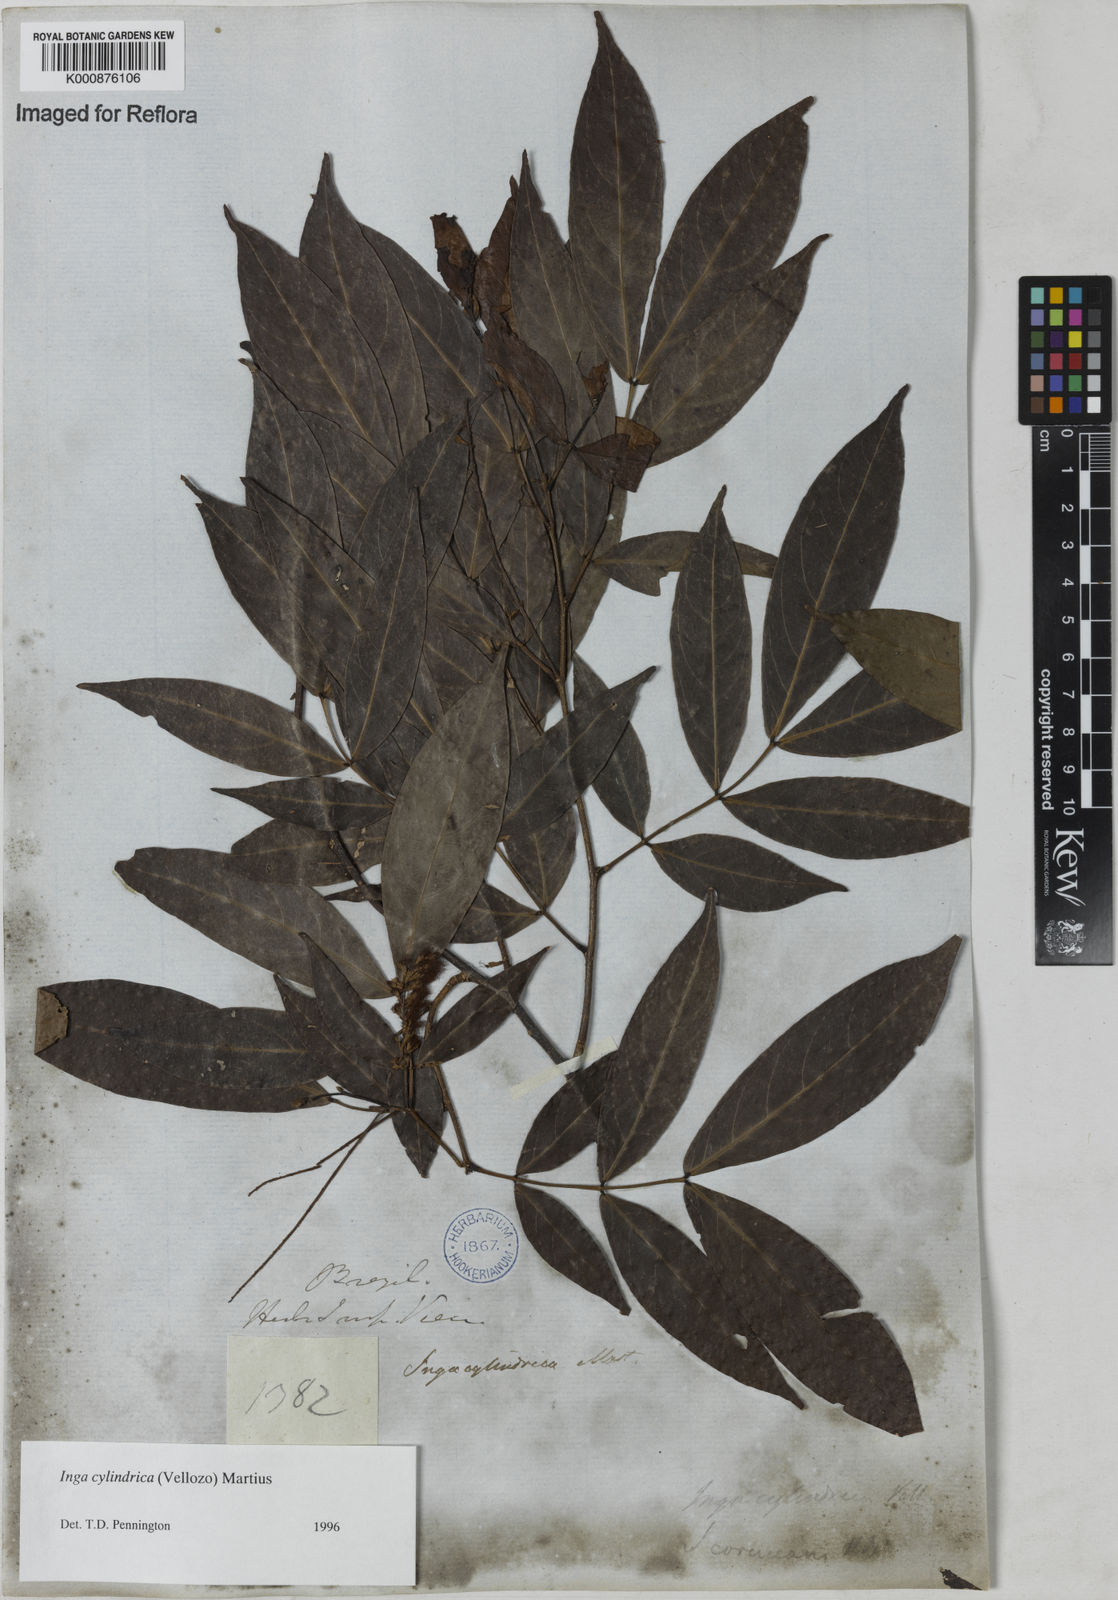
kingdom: Plantae
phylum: Tracheophyta
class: Magnoliopsida
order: Fabales
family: Fabaceae
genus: Inga
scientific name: Inga cylindrica
